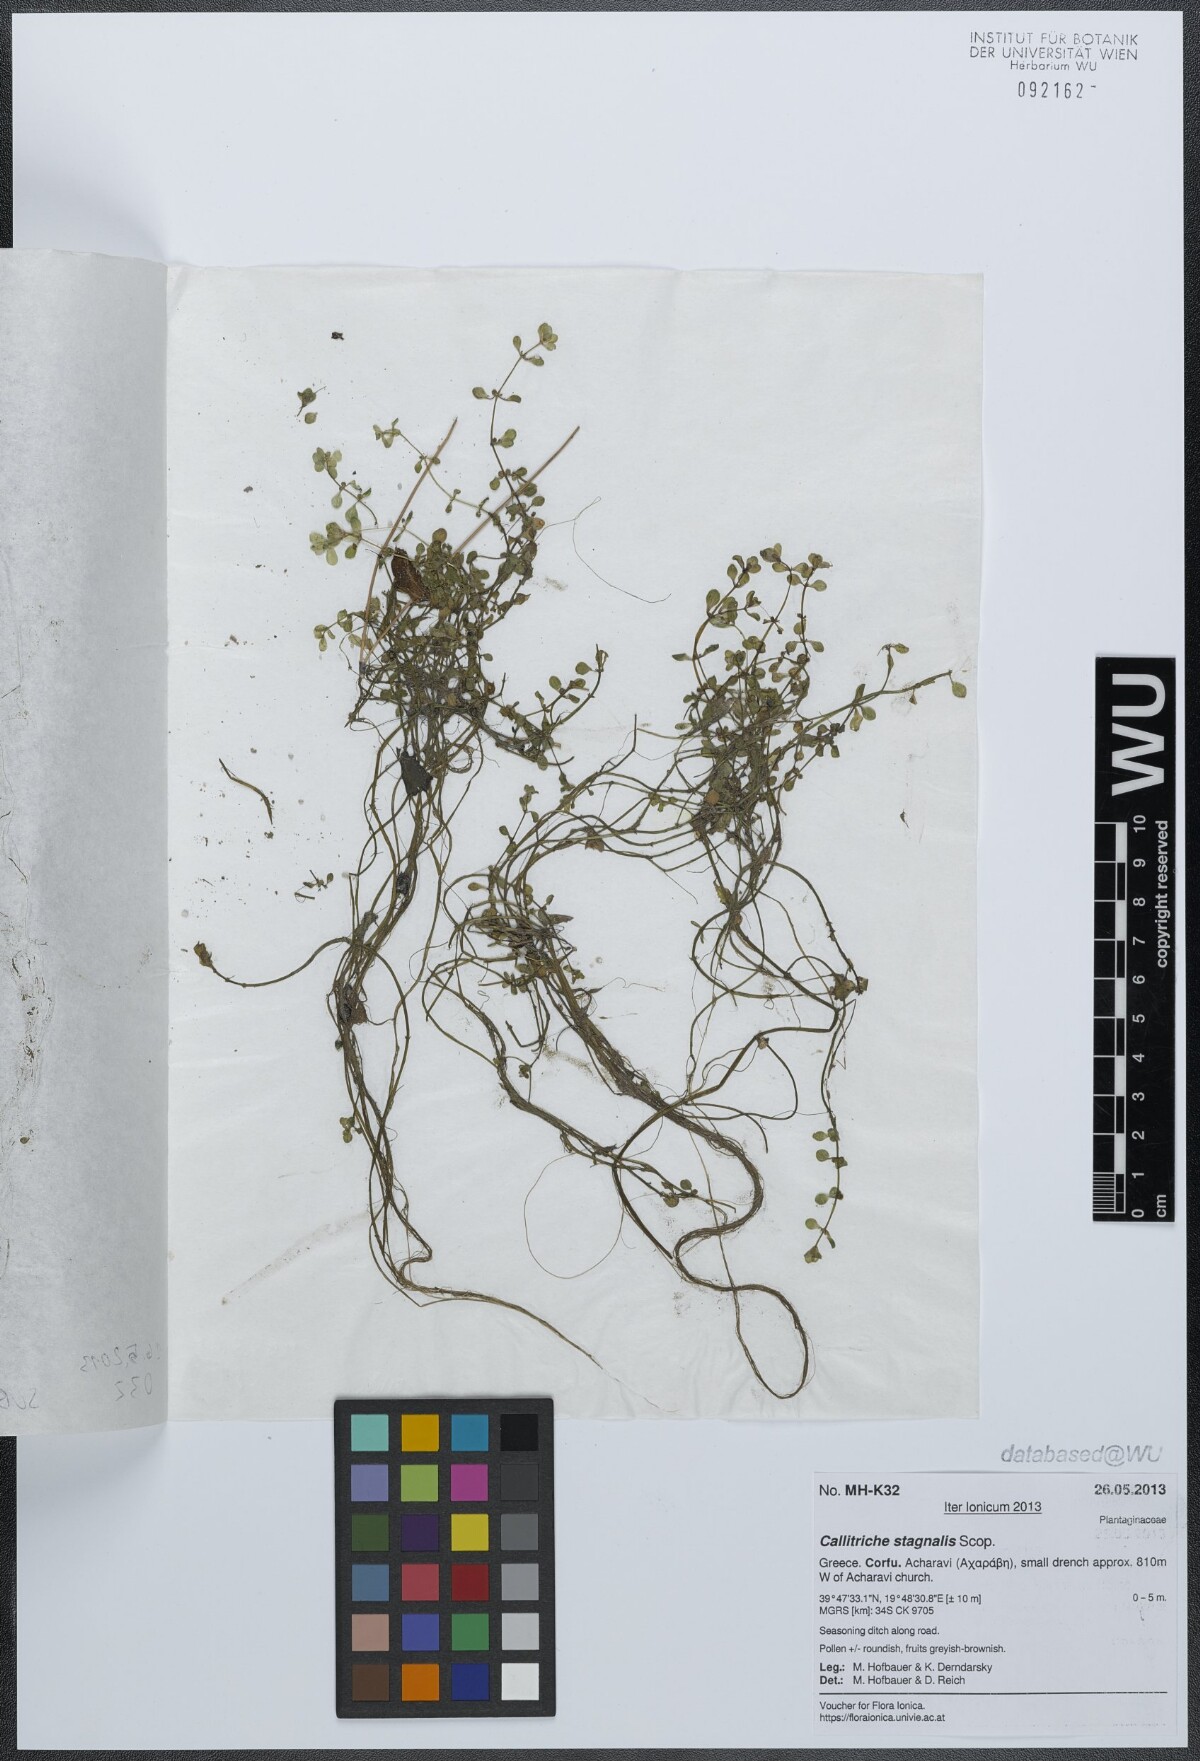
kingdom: Plantae
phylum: Tracheophyta
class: Magnoliopsida
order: Lamiales
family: Plantaginaceae
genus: Callitriche
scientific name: Callitriche stagnalis
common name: Common water-starwort
